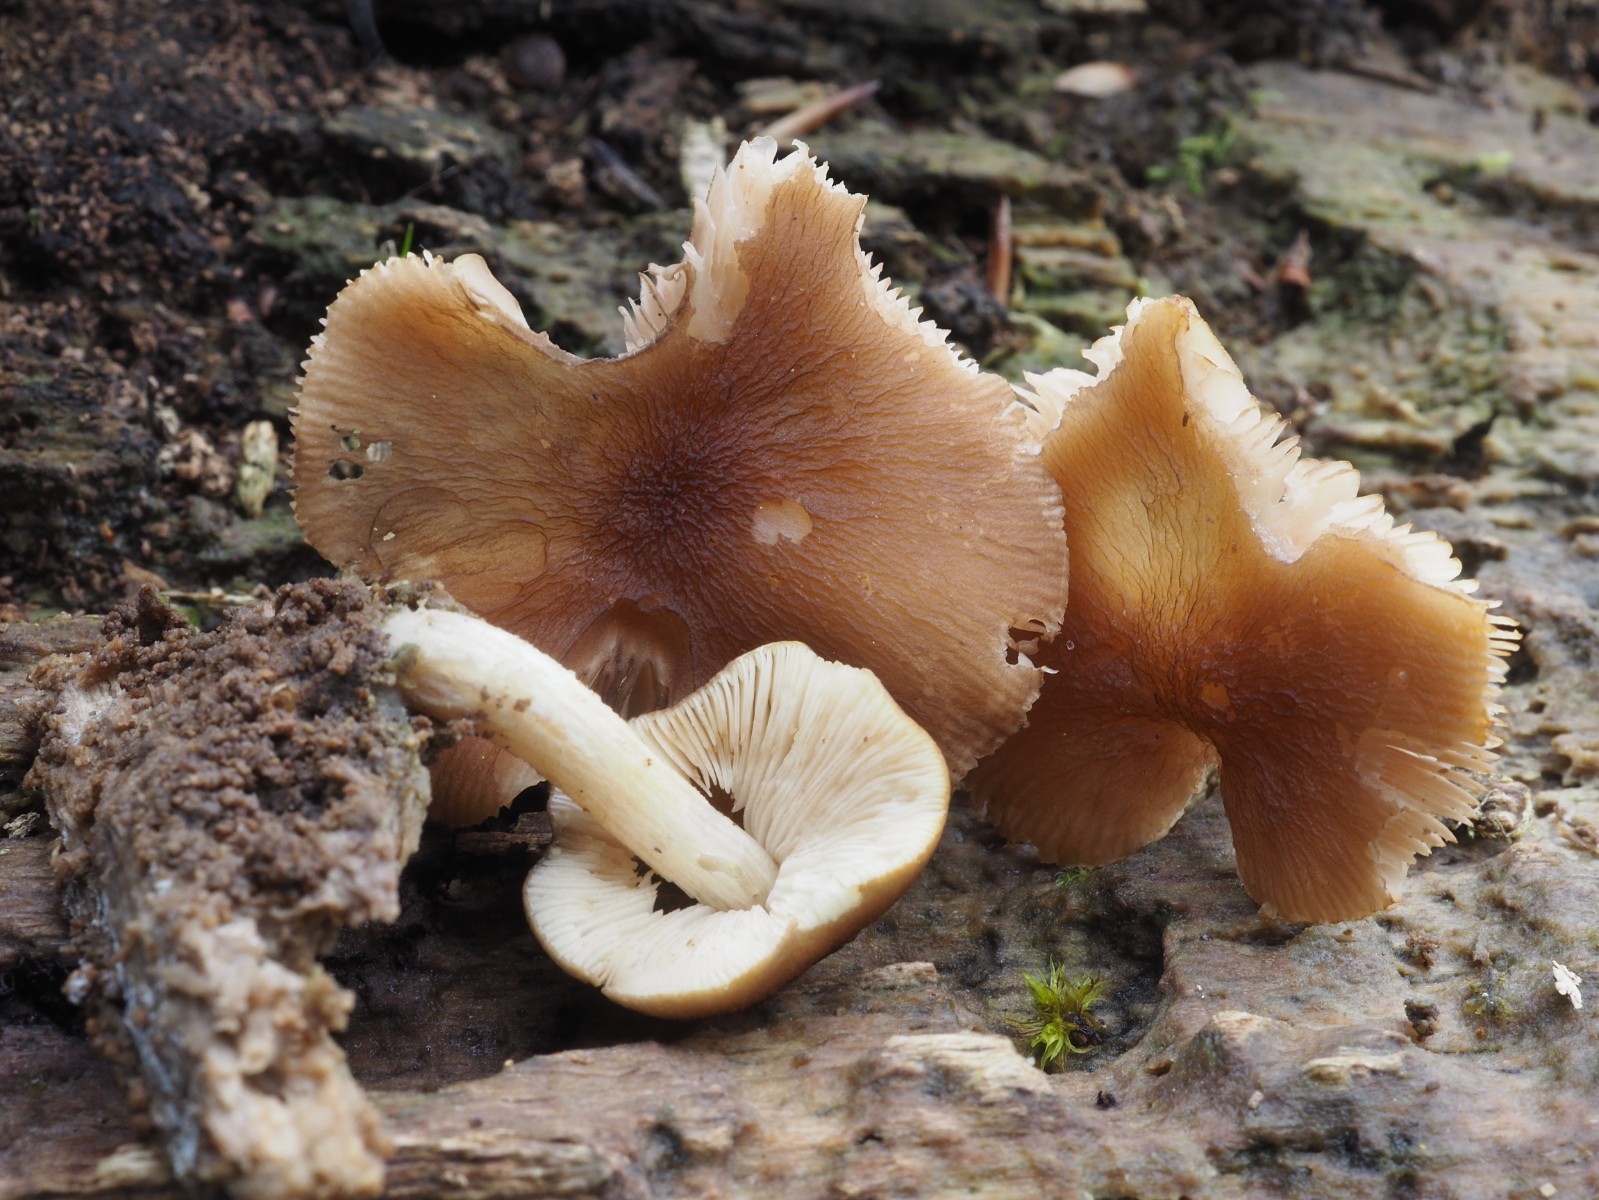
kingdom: Fungi
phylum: Basidiomycota
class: Agaricomycetes
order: Agaricales
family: Pluteaceae
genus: Pluteus
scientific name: Pluteus phlebophorus
